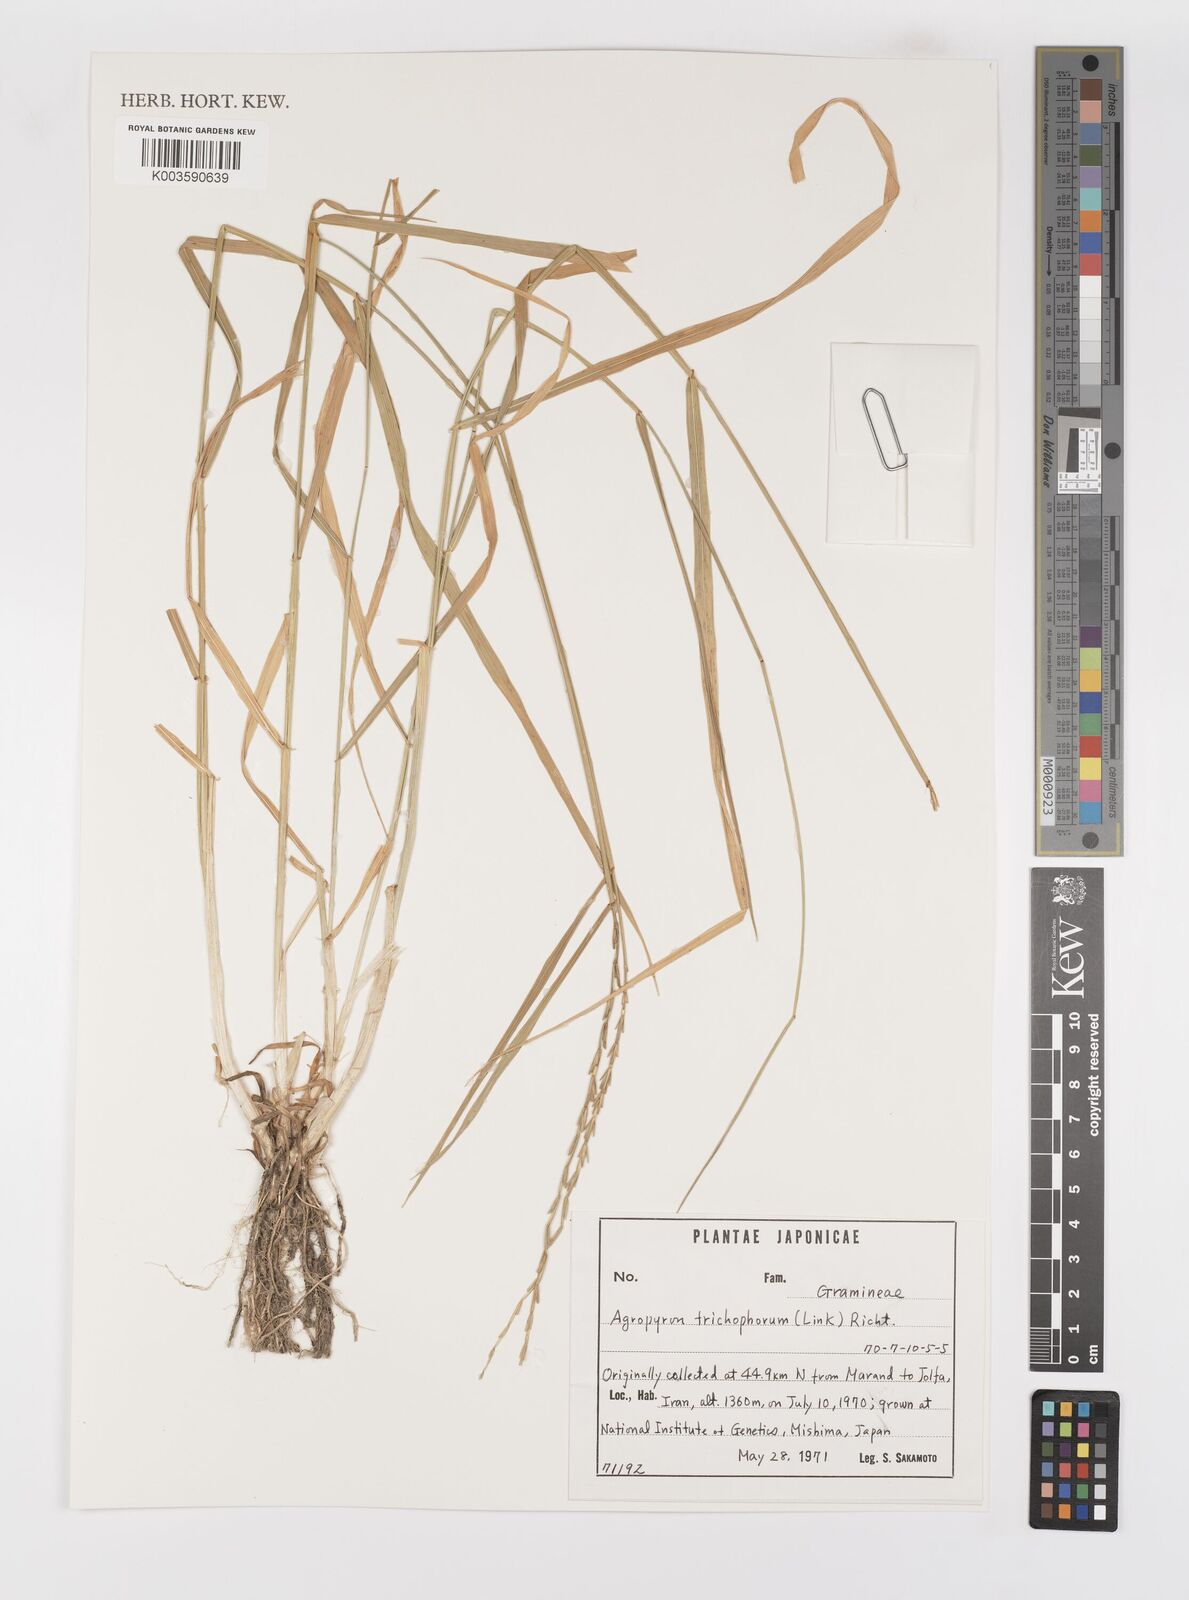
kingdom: Plantae
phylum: Tracheophyta
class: Liliopsida
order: Poales
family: Poaceae
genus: Thinopyrum
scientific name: Thinopyrum intermedium
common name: Intermediate wheatgrass
